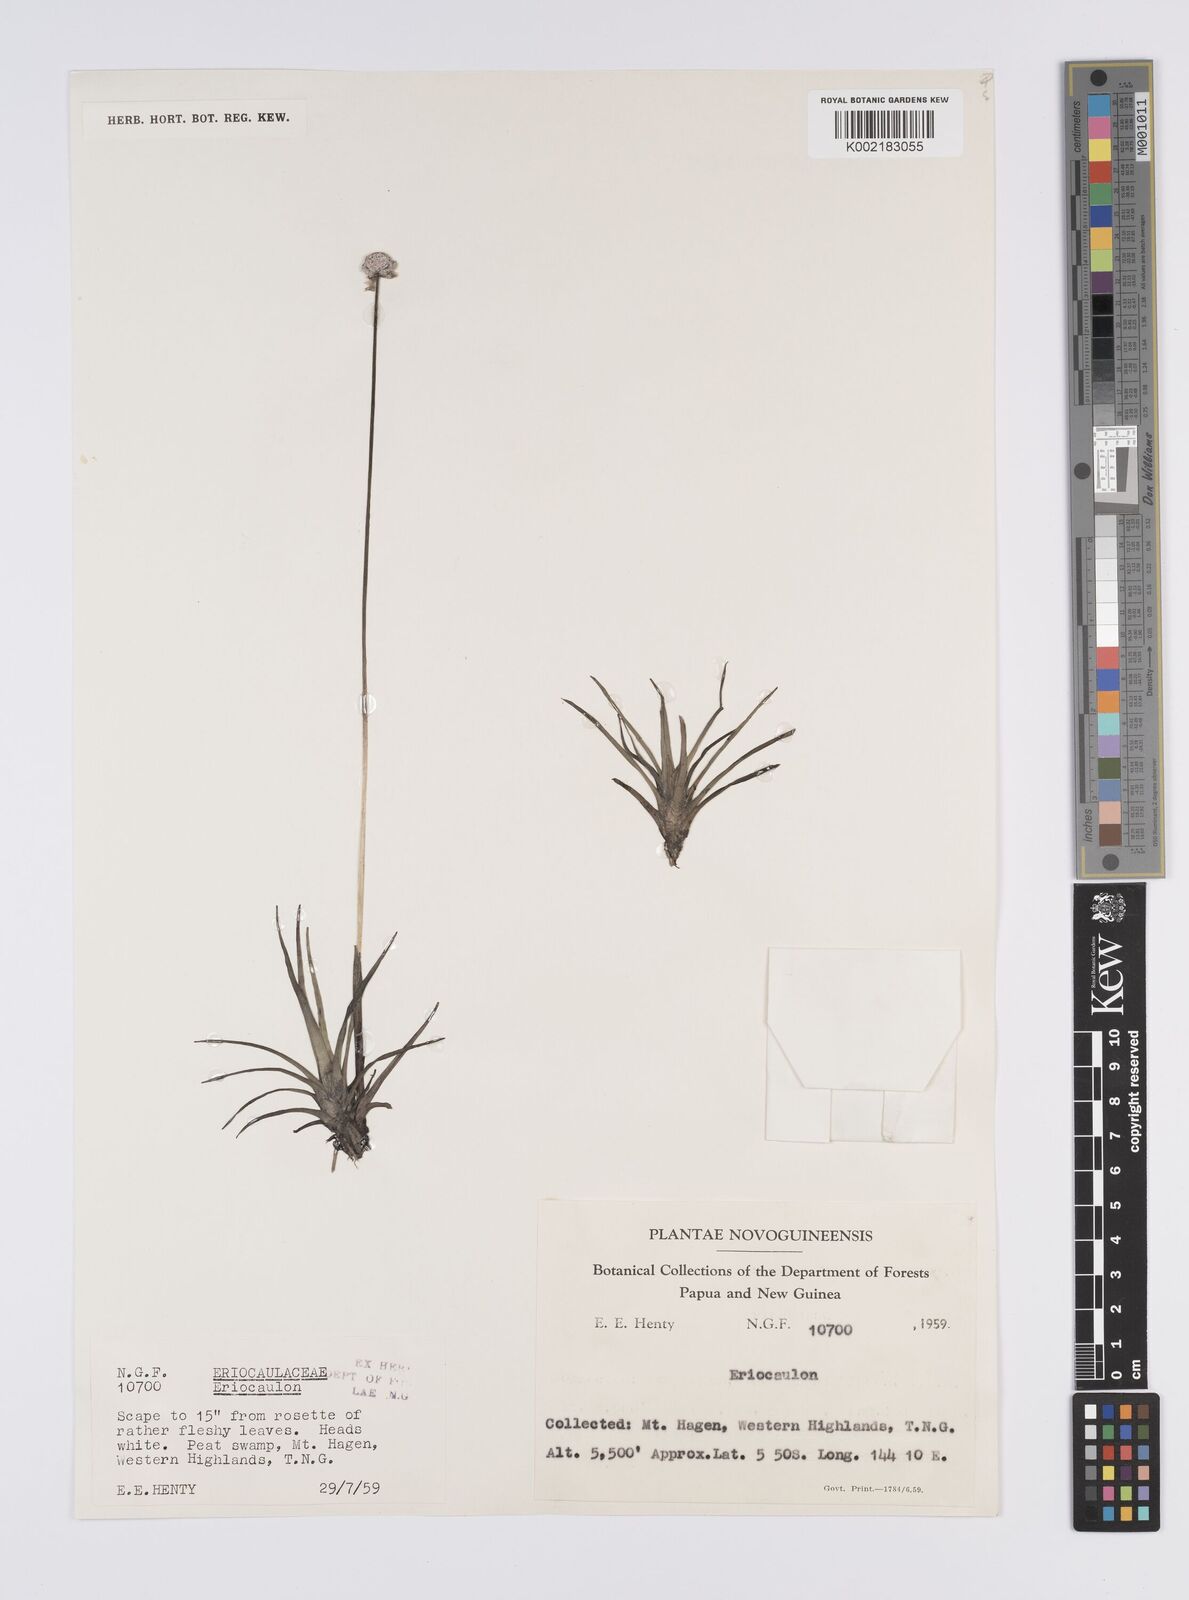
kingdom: Plantae
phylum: Tracheophyta
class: Liliopsida
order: Poales
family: Eriocaulaceae
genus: Eriocaulon
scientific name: Eriocaulon
